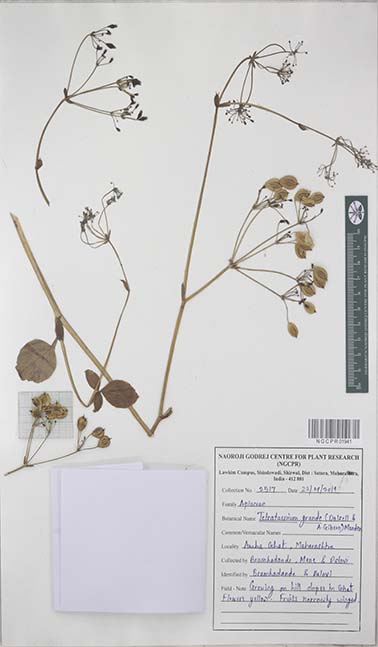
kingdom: Plantae
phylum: Tracheophyta
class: Magnoliopsida
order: Apiales
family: Apiaceae
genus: Tetrataenium
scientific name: Tetrataenium grande
